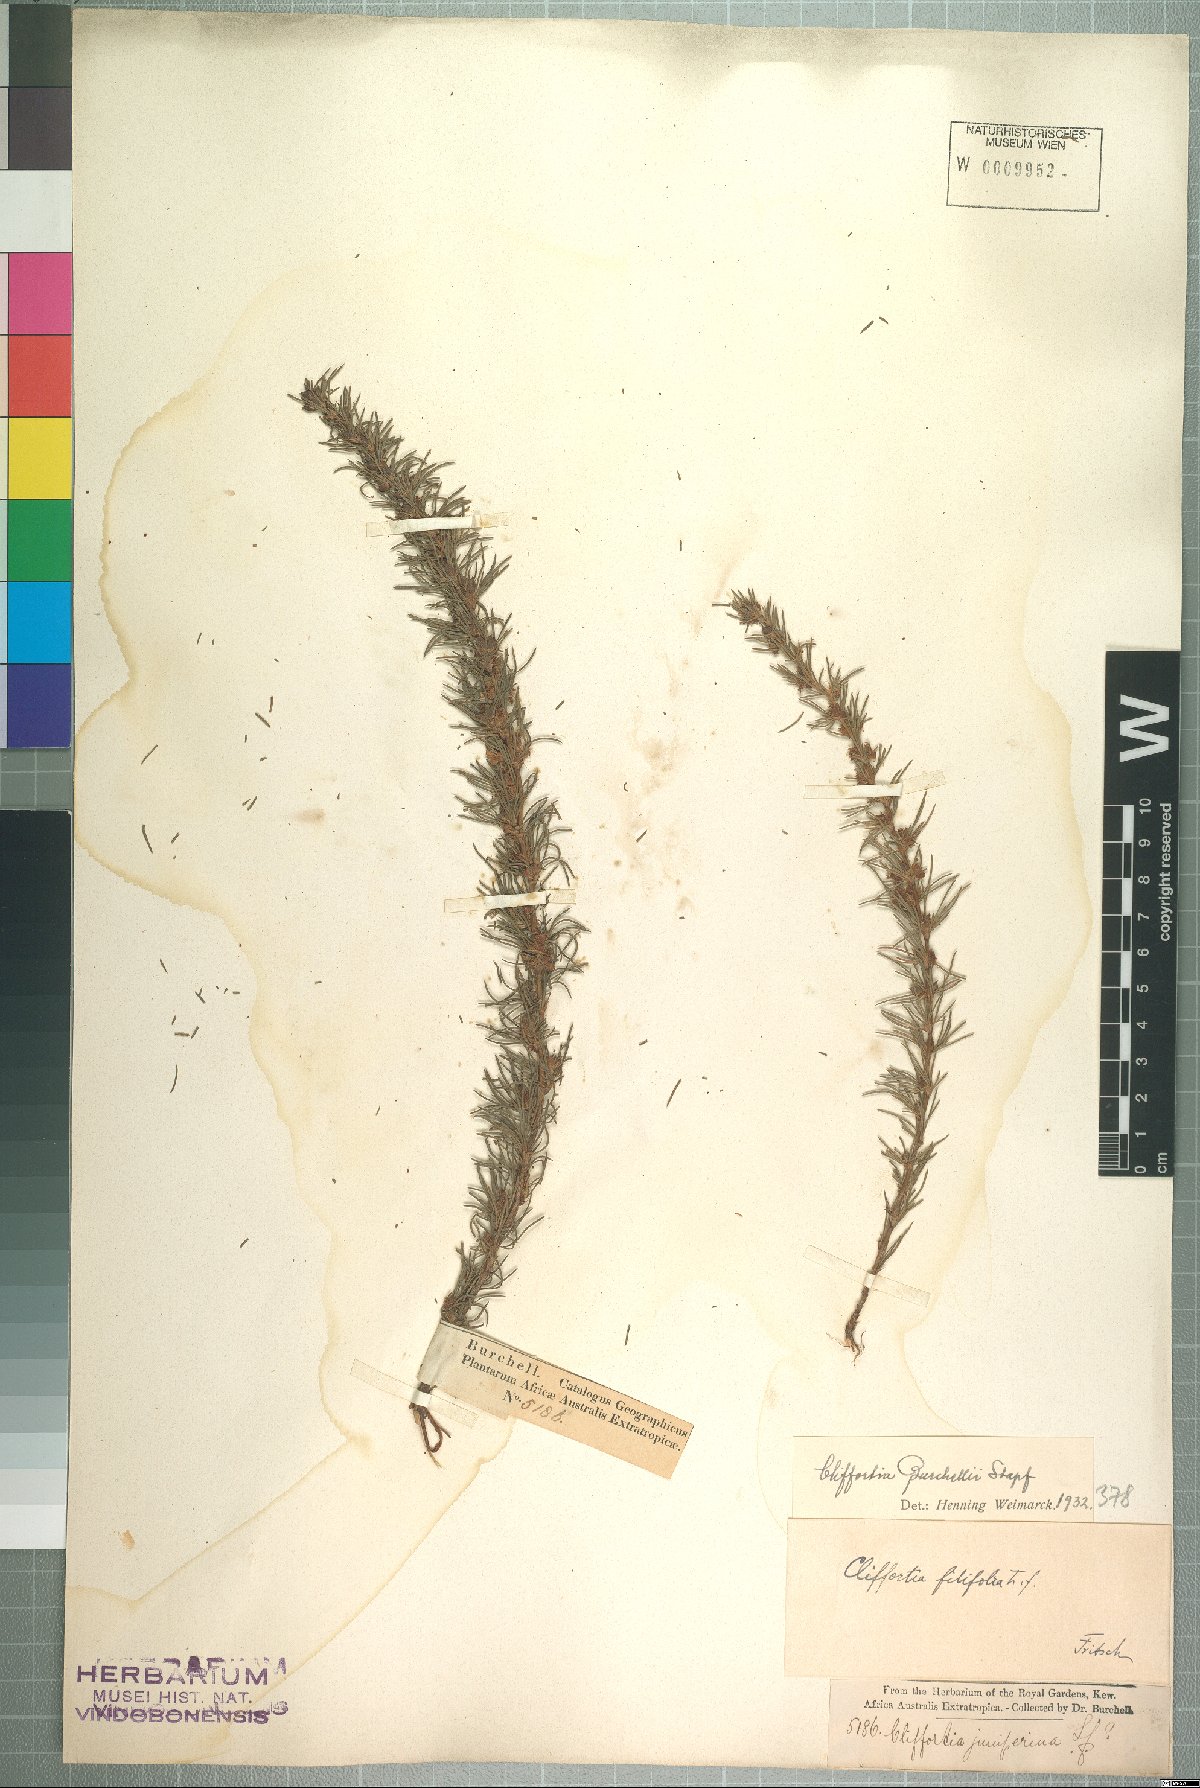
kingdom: Plantae
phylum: Tracheophyta
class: Magnoliopsida
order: Rosales
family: Rosaceae
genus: Cliffortia
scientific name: Cliffortia burchellii
